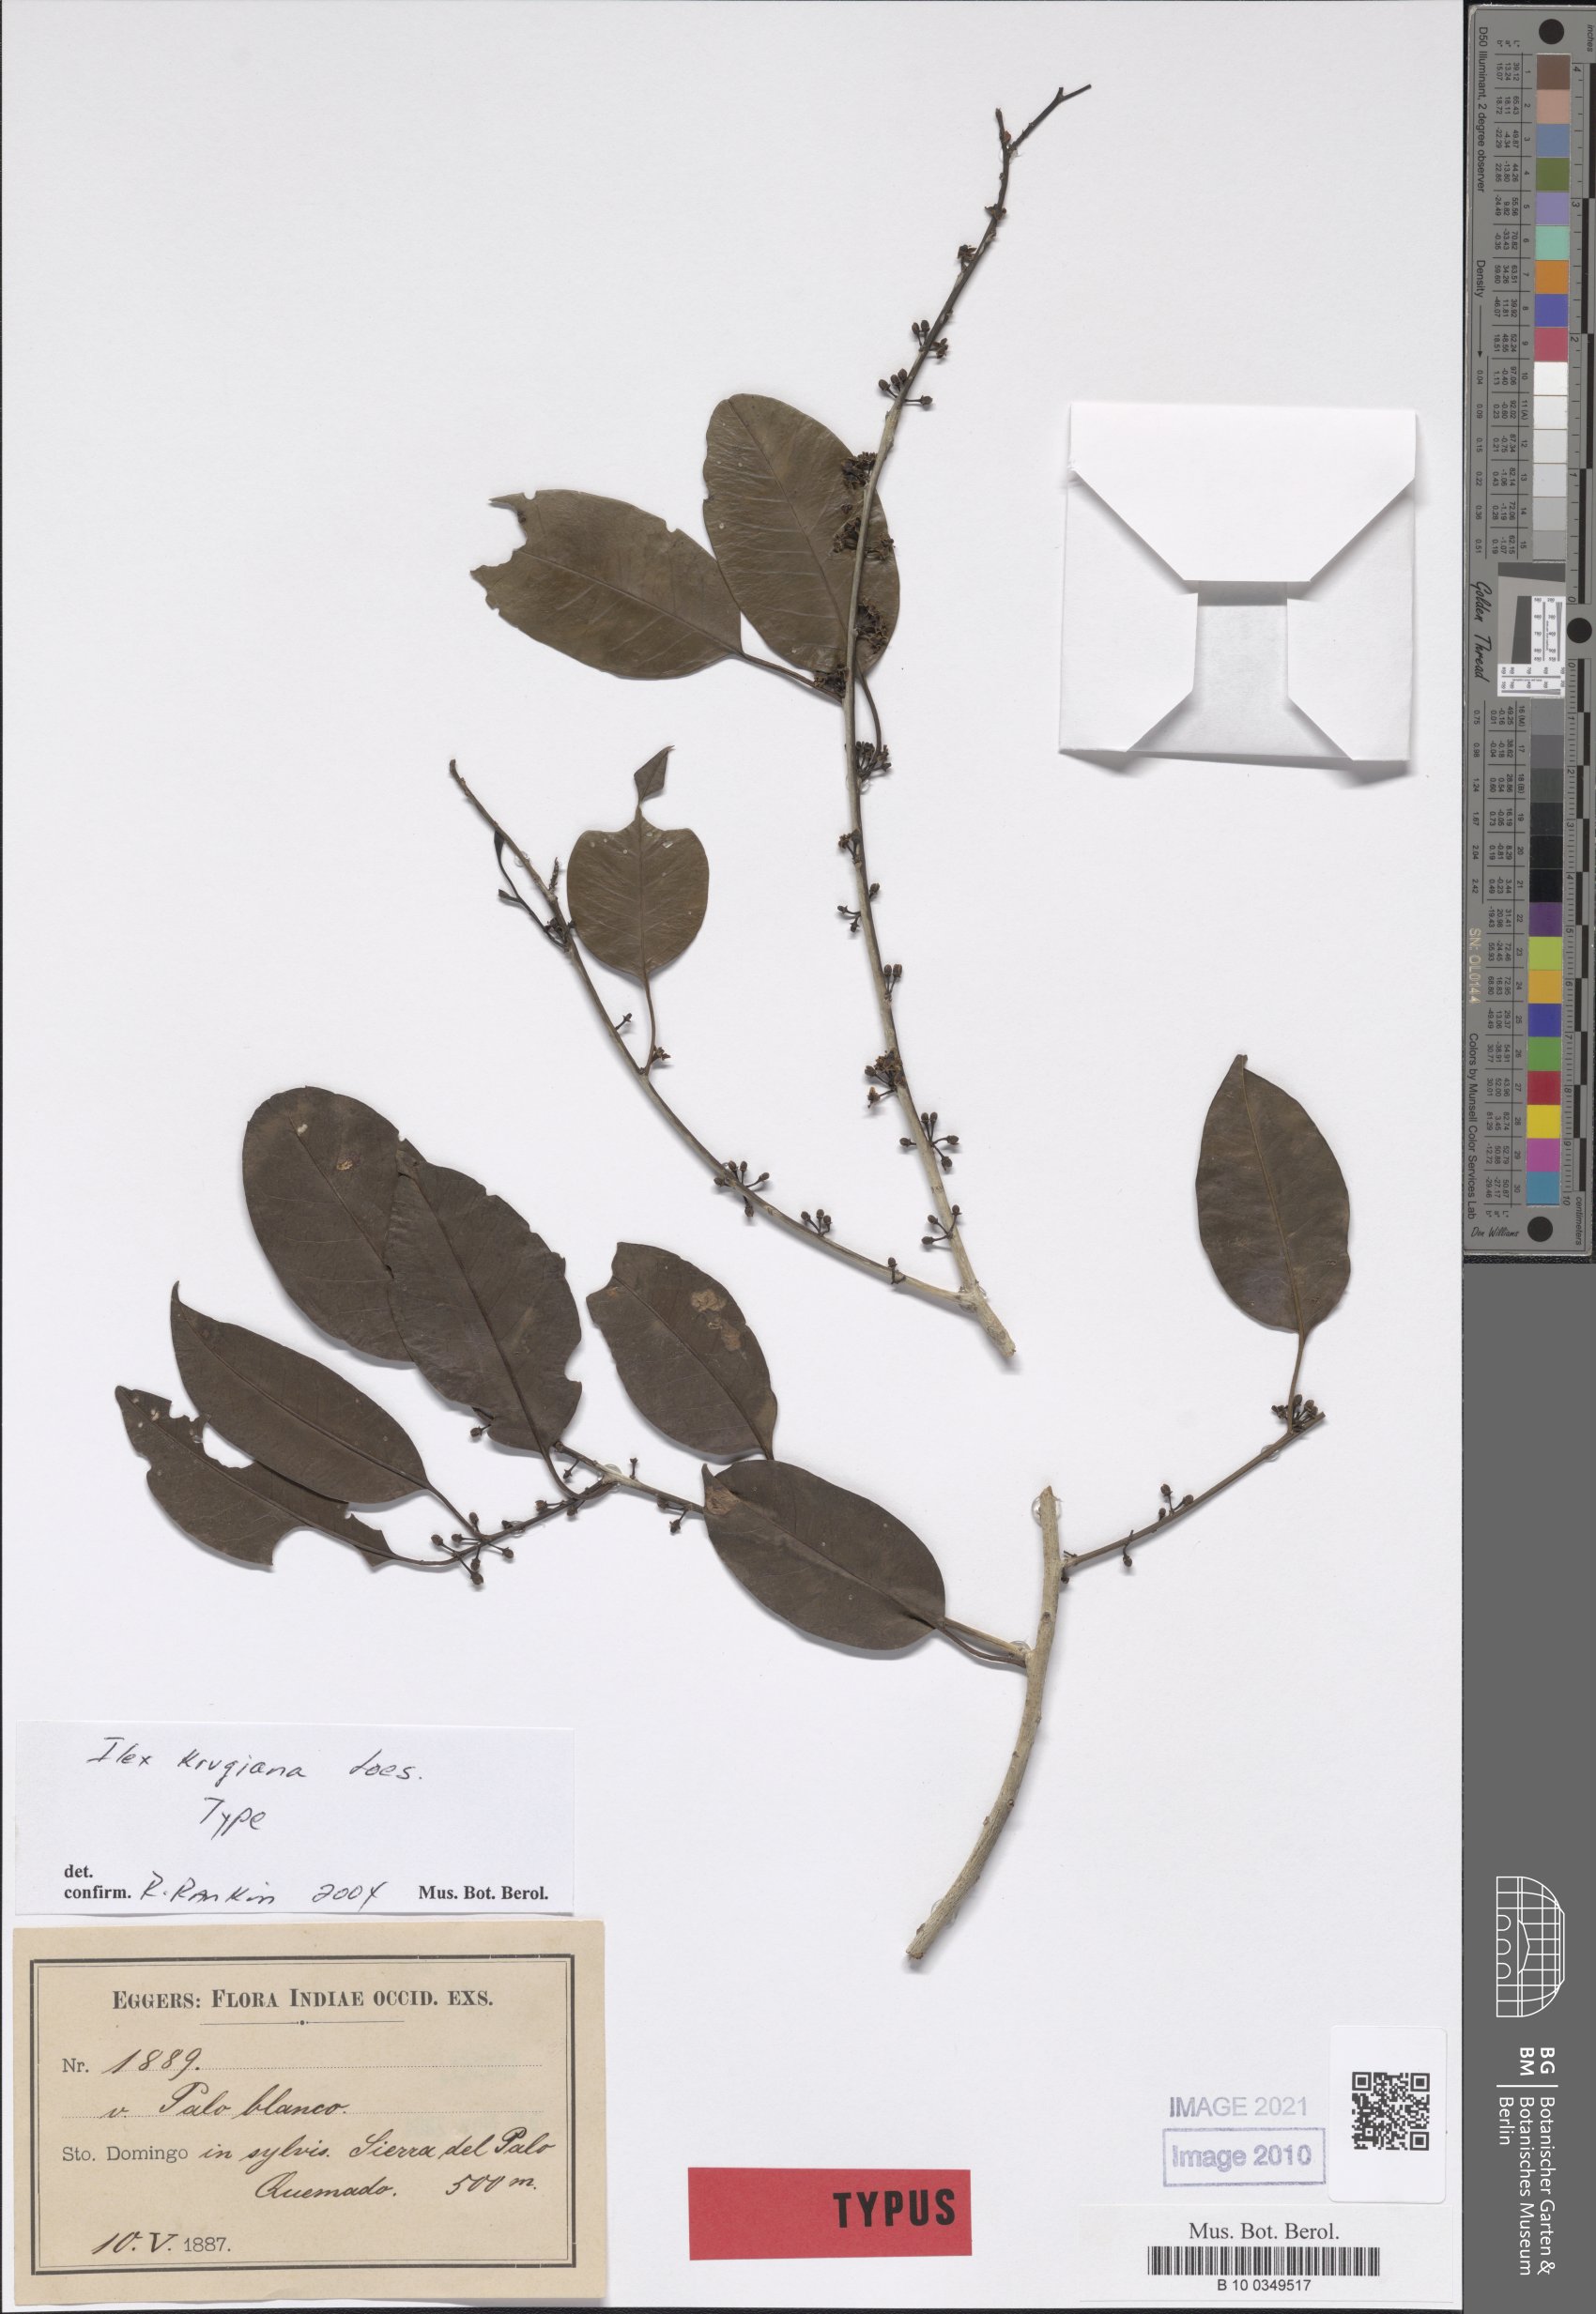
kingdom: Plantae
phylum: Tracheophyta
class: Magnoliopsida
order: Aquifoliales
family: Aquifoliaceae
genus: Ilex
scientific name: Ilex krugiana
